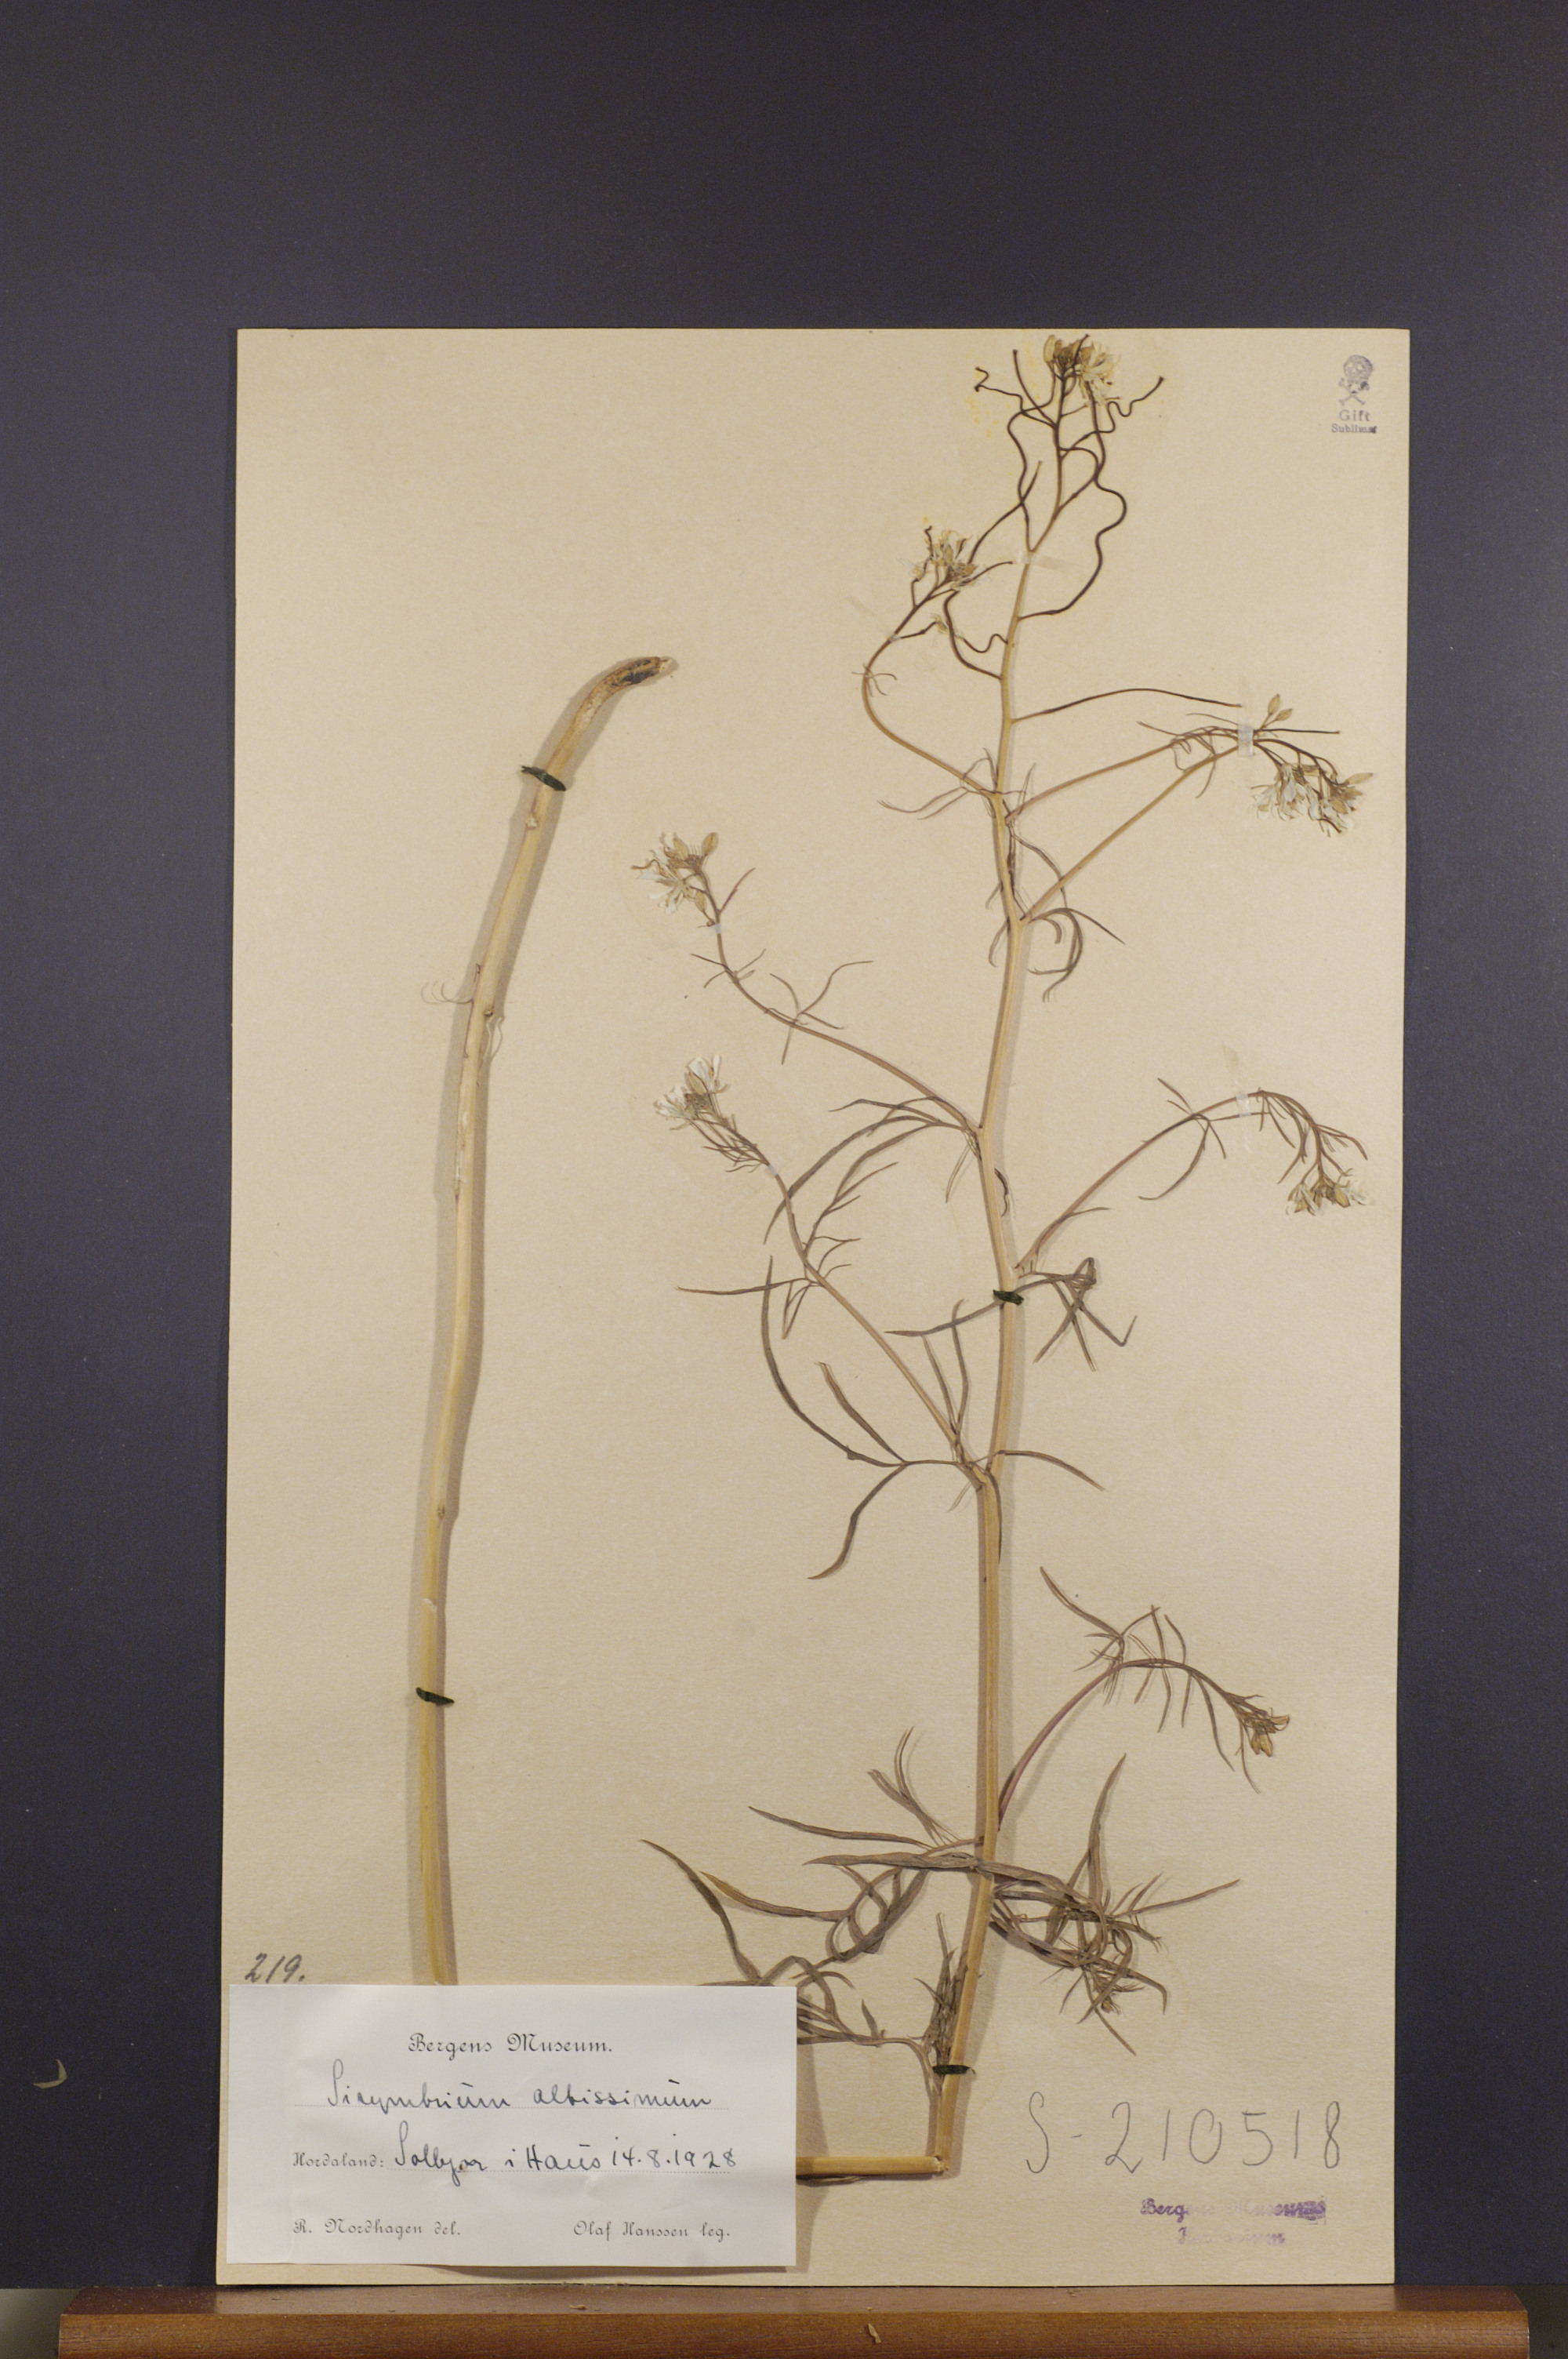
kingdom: Plantae
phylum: Tracheophyta
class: Magnoliopsida
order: Brassicales
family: Brassicaceae
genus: Sisymbrium
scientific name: Sisymbrium altissimum
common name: Tall rocket
